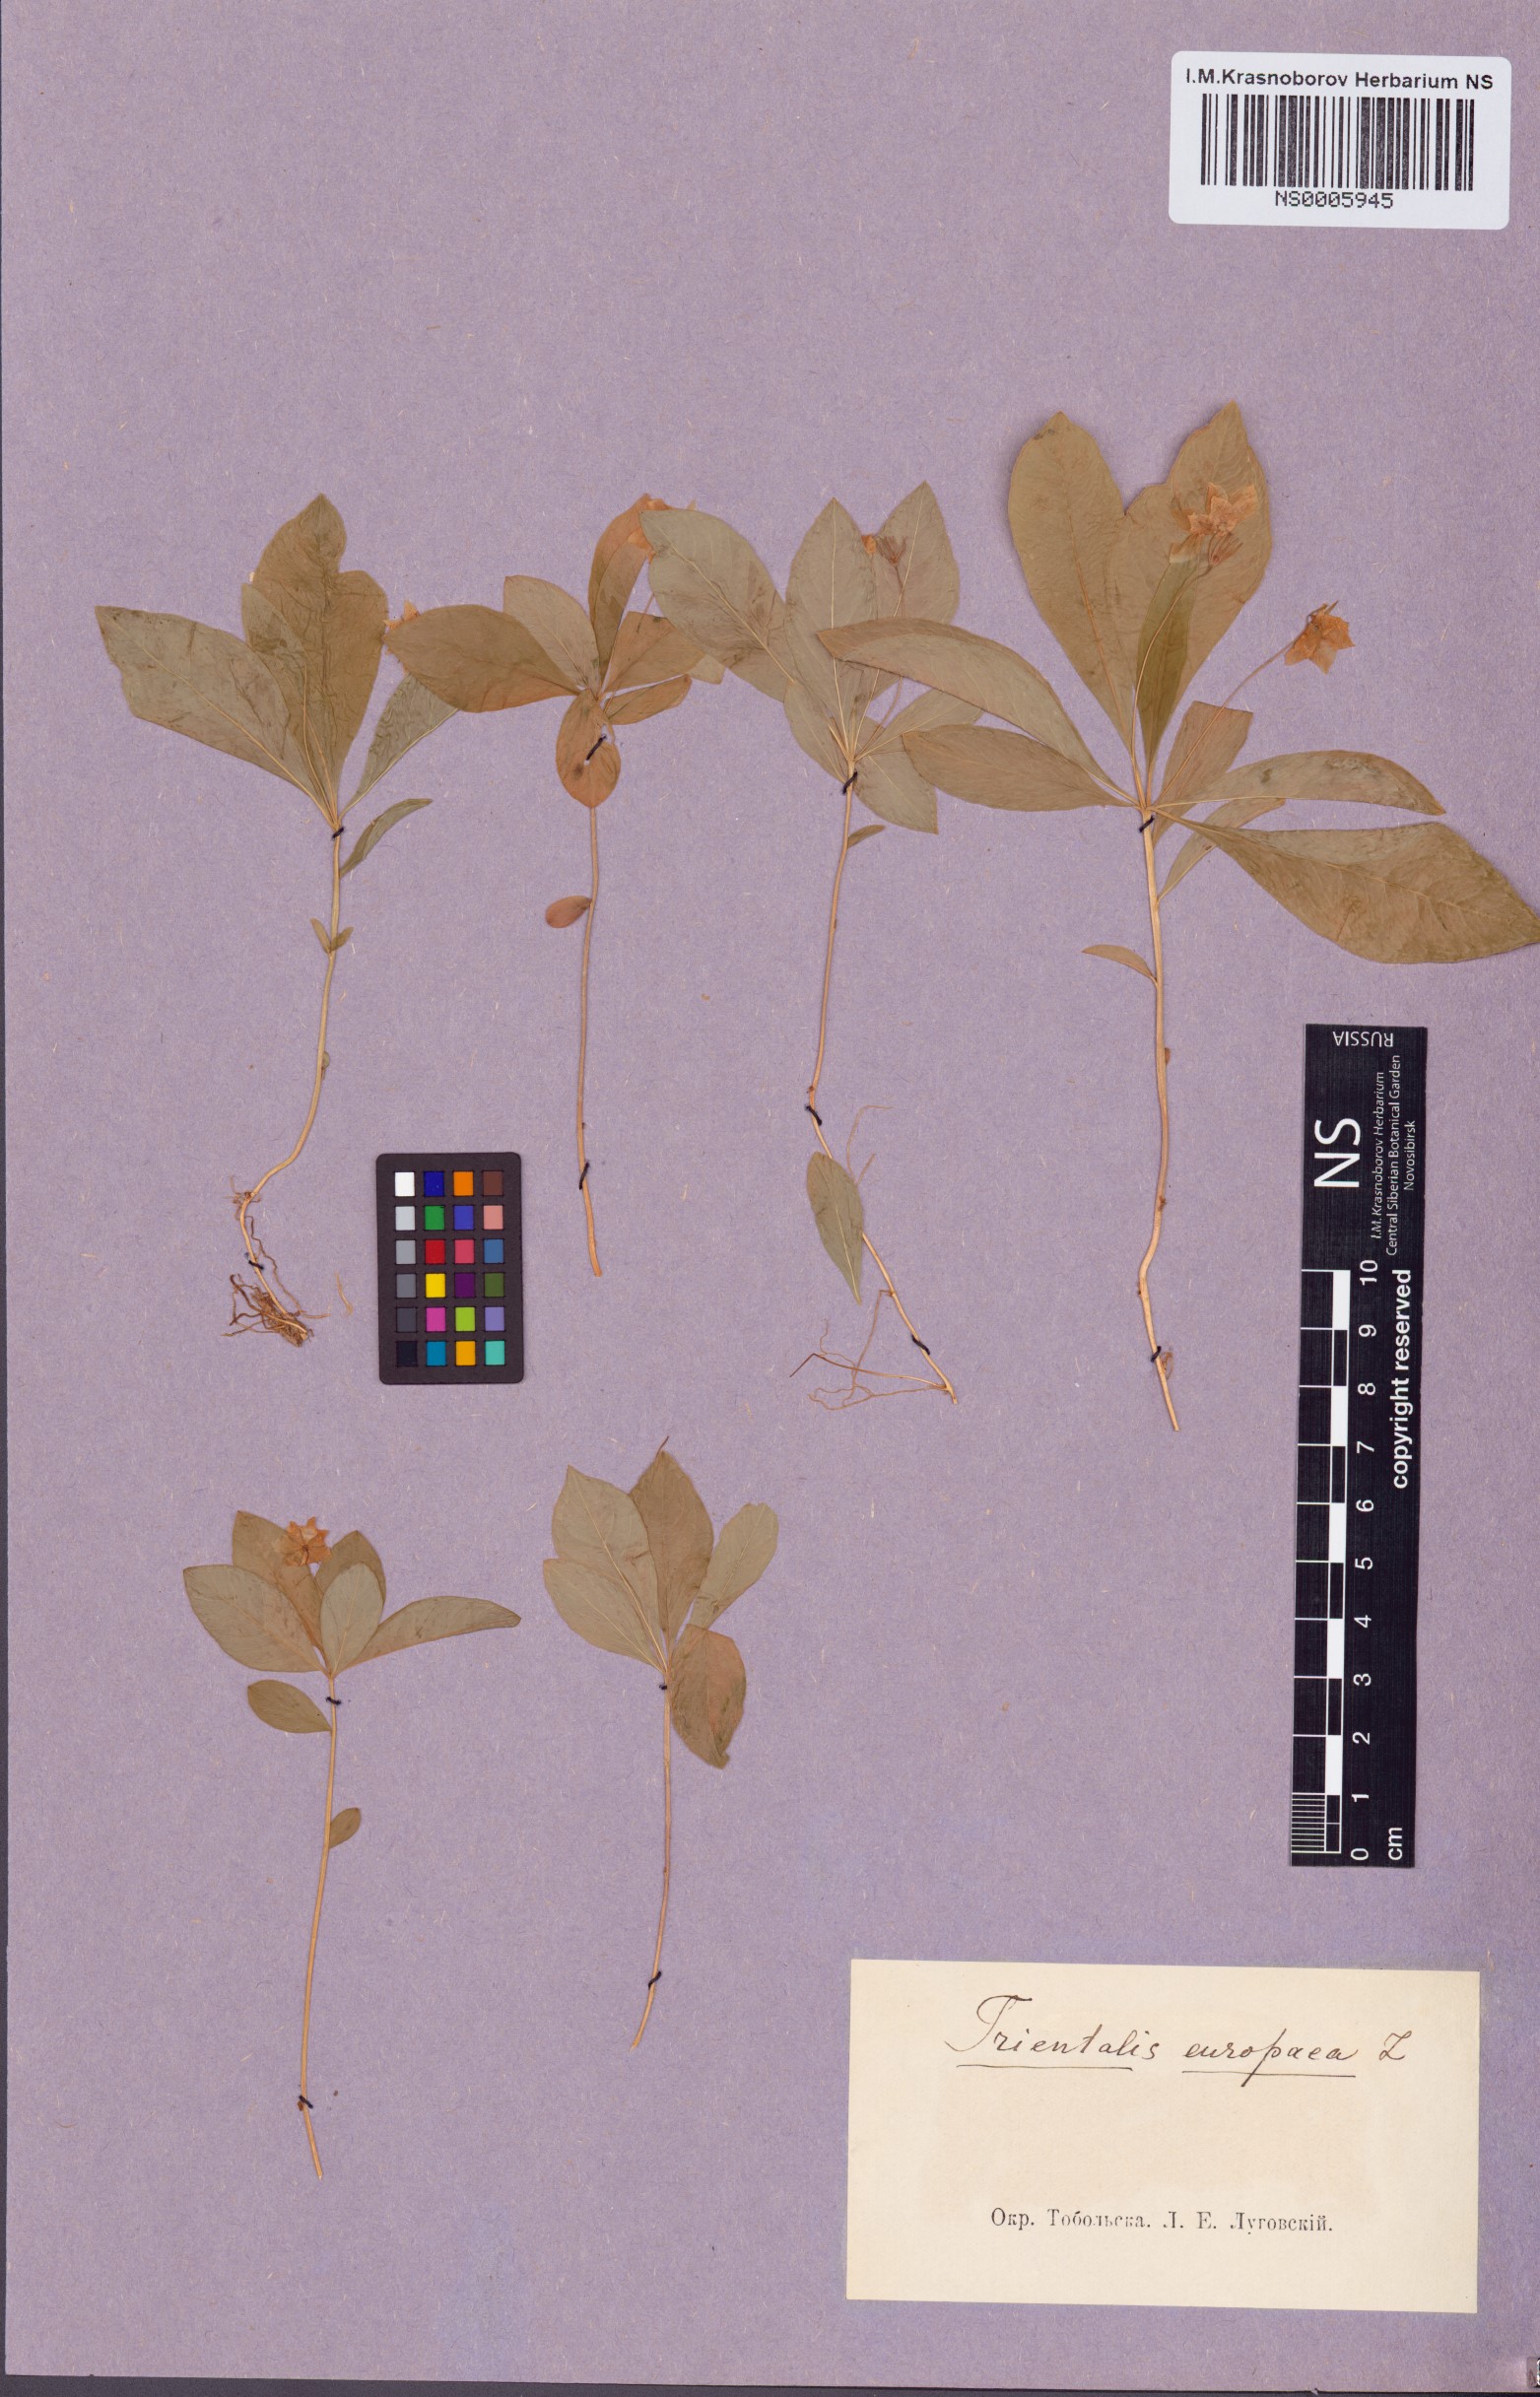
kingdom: Plantae
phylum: Tracheophyta
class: Magnoliopsida
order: Ericales
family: Primulaceae
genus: Lysimachia
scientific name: Lysimachia europaea
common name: Arctic starflower
